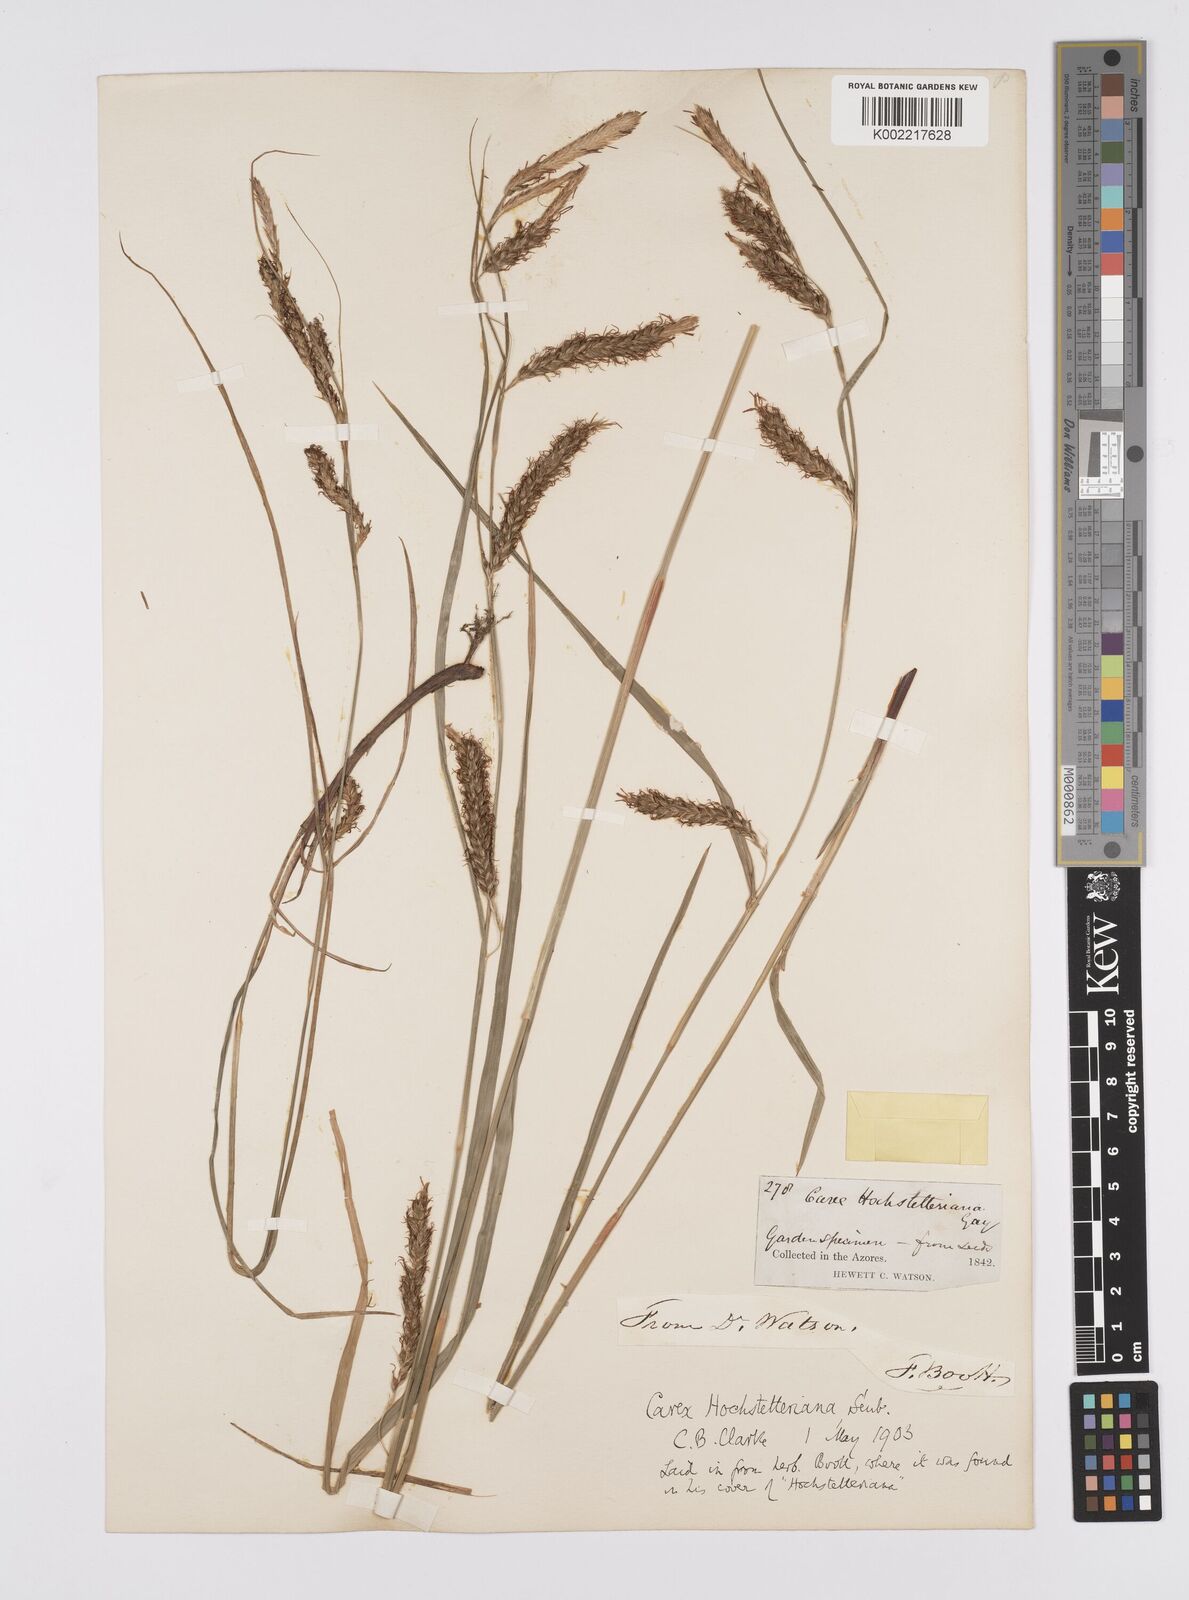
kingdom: Plantae
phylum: Tracheophyta
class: Liliopsida
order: Poales
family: Cyperaceae
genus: Carex
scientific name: Carex hochstetteriana
